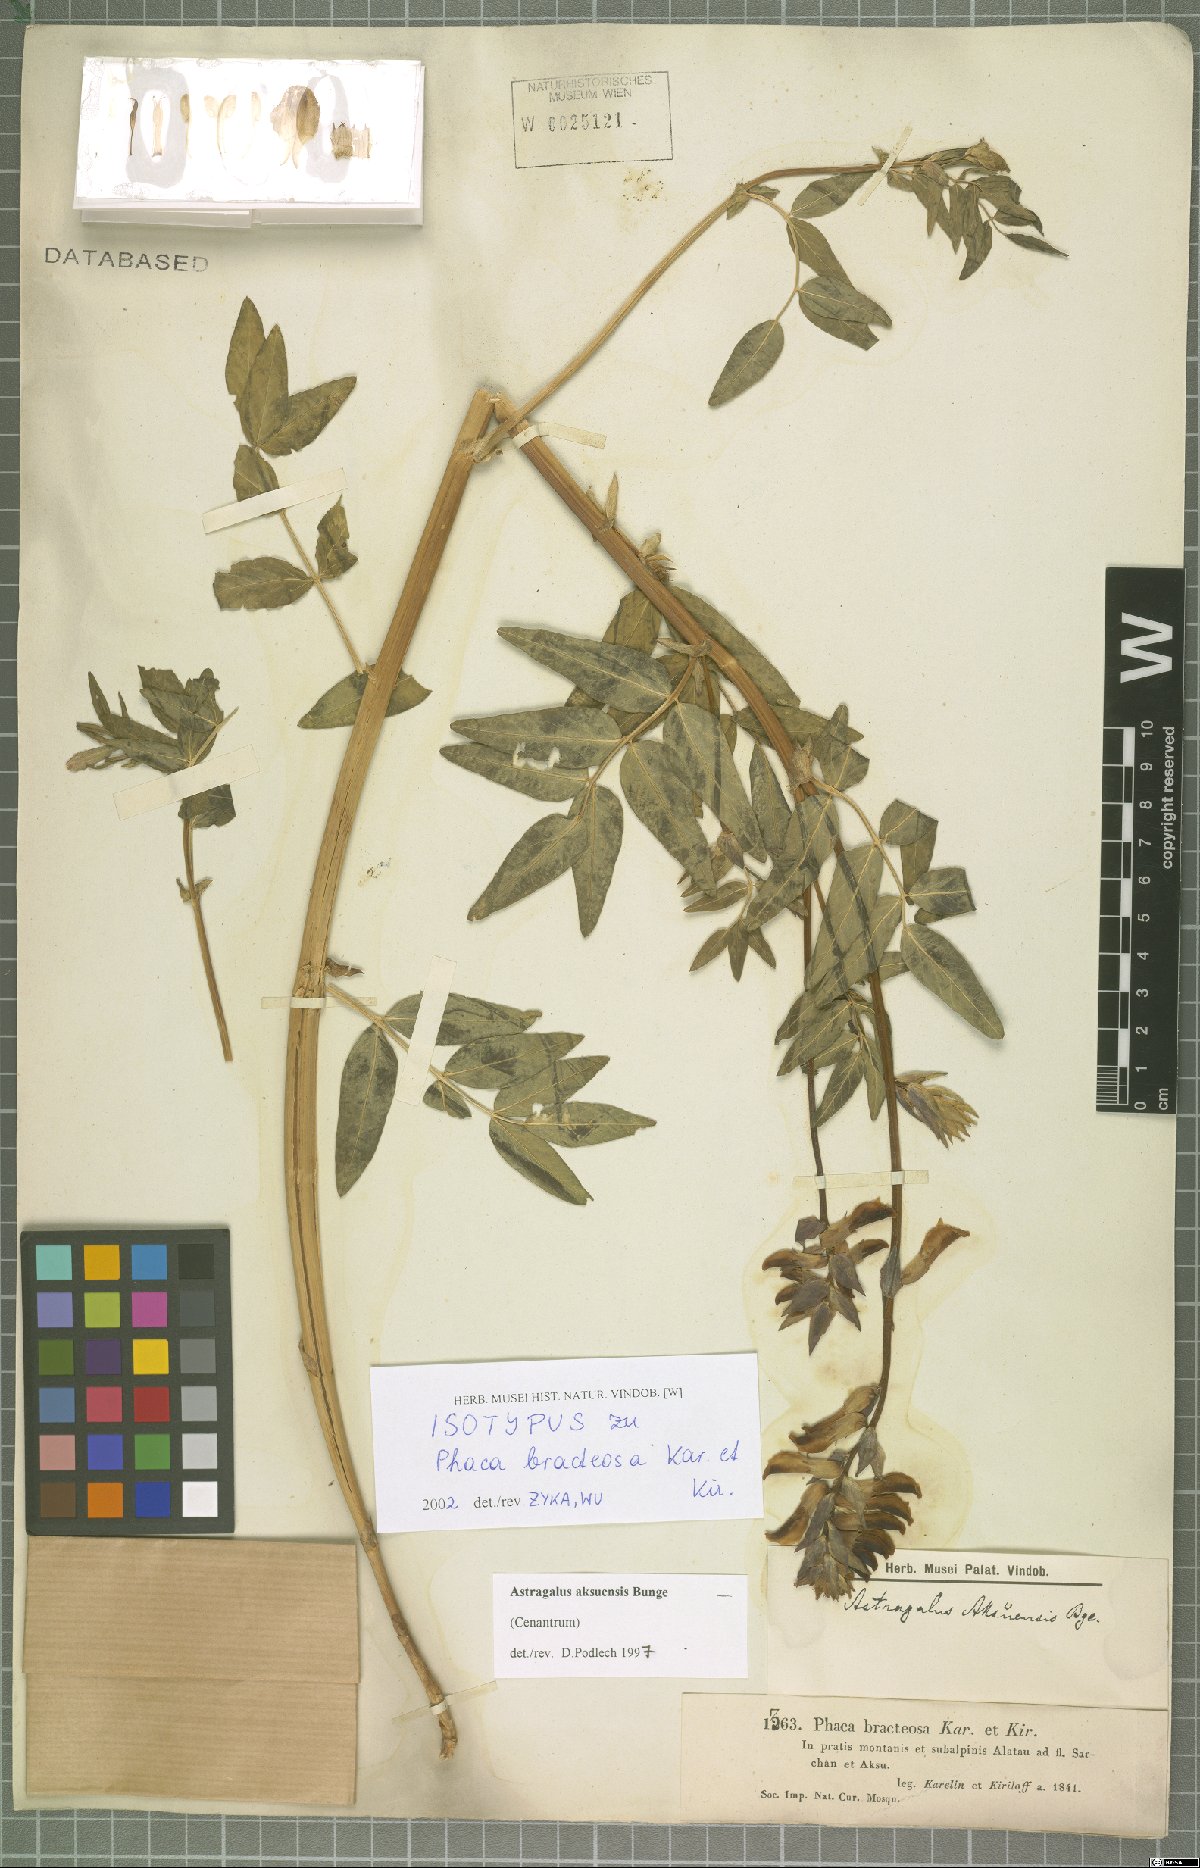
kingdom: Plantae
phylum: Tracheophyta
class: Magnoliopsida
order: Fabales
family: Fabaceae
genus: Astragalus
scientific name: Astragalus aksuensis
